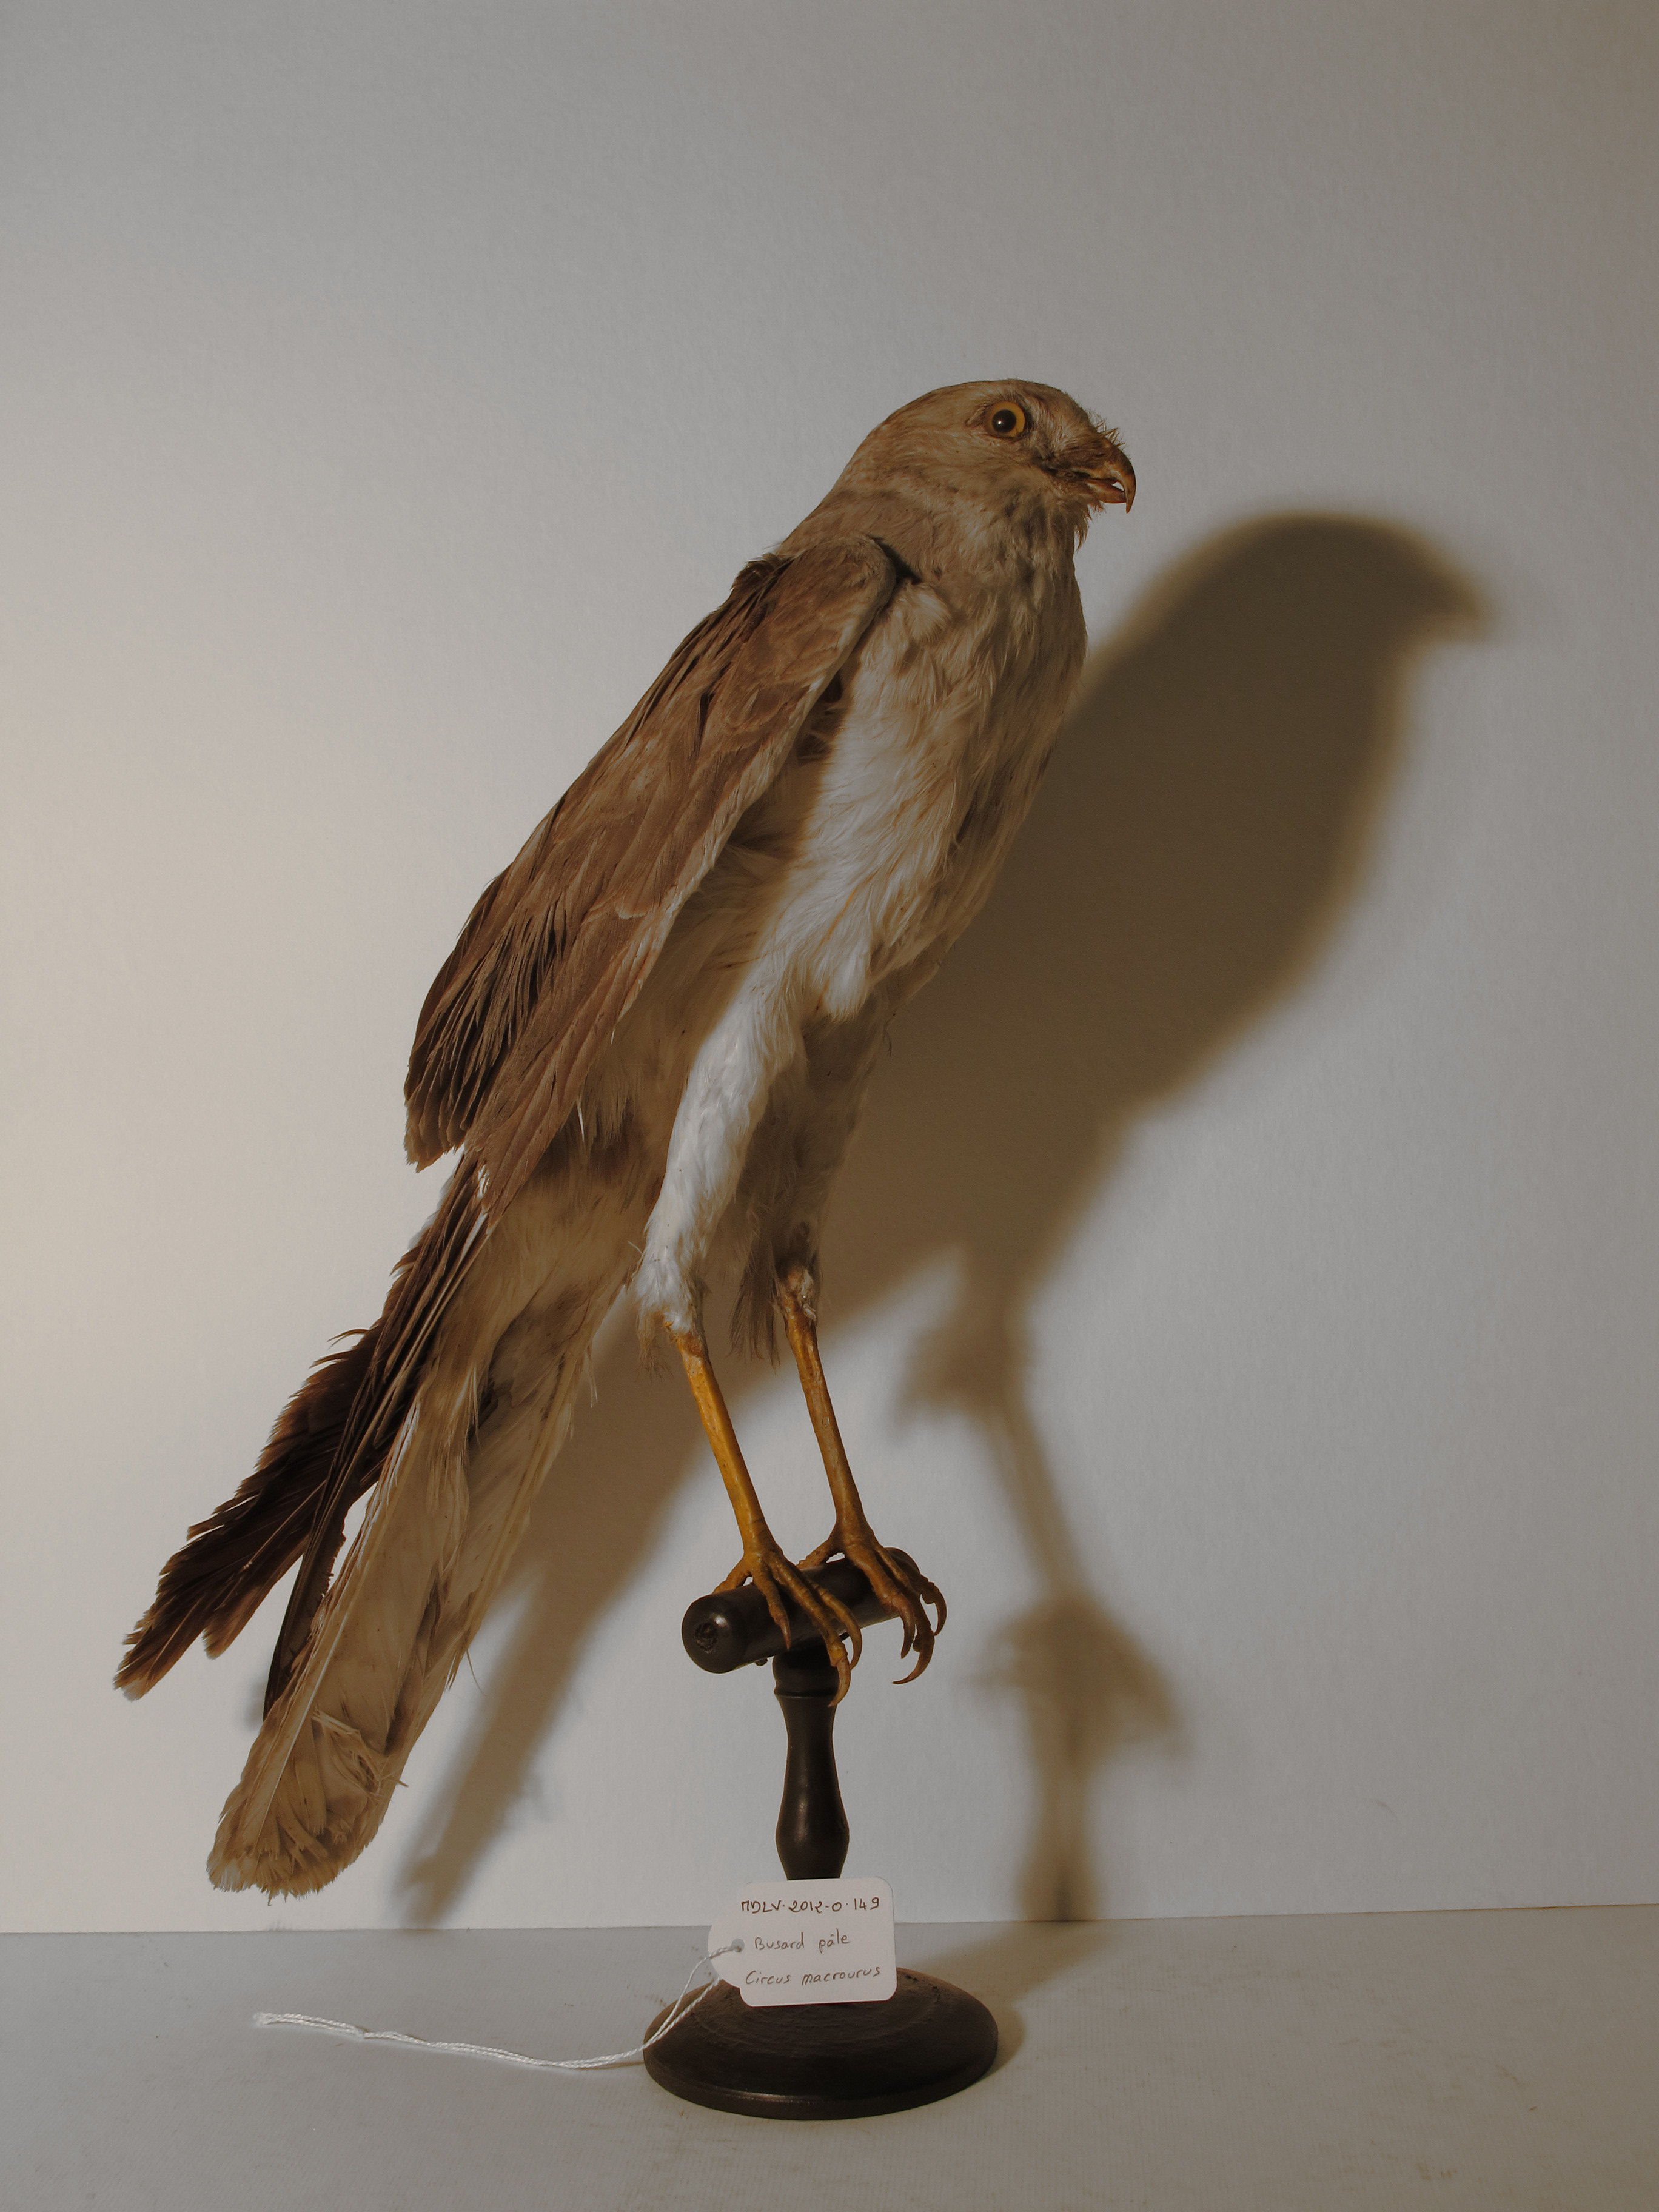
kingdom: Animalia
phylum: Chordata
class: Aves
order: Accipitriformes
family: Accipitridae
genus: Circus
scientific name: Circus macrourus
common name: Pallid Harrier
